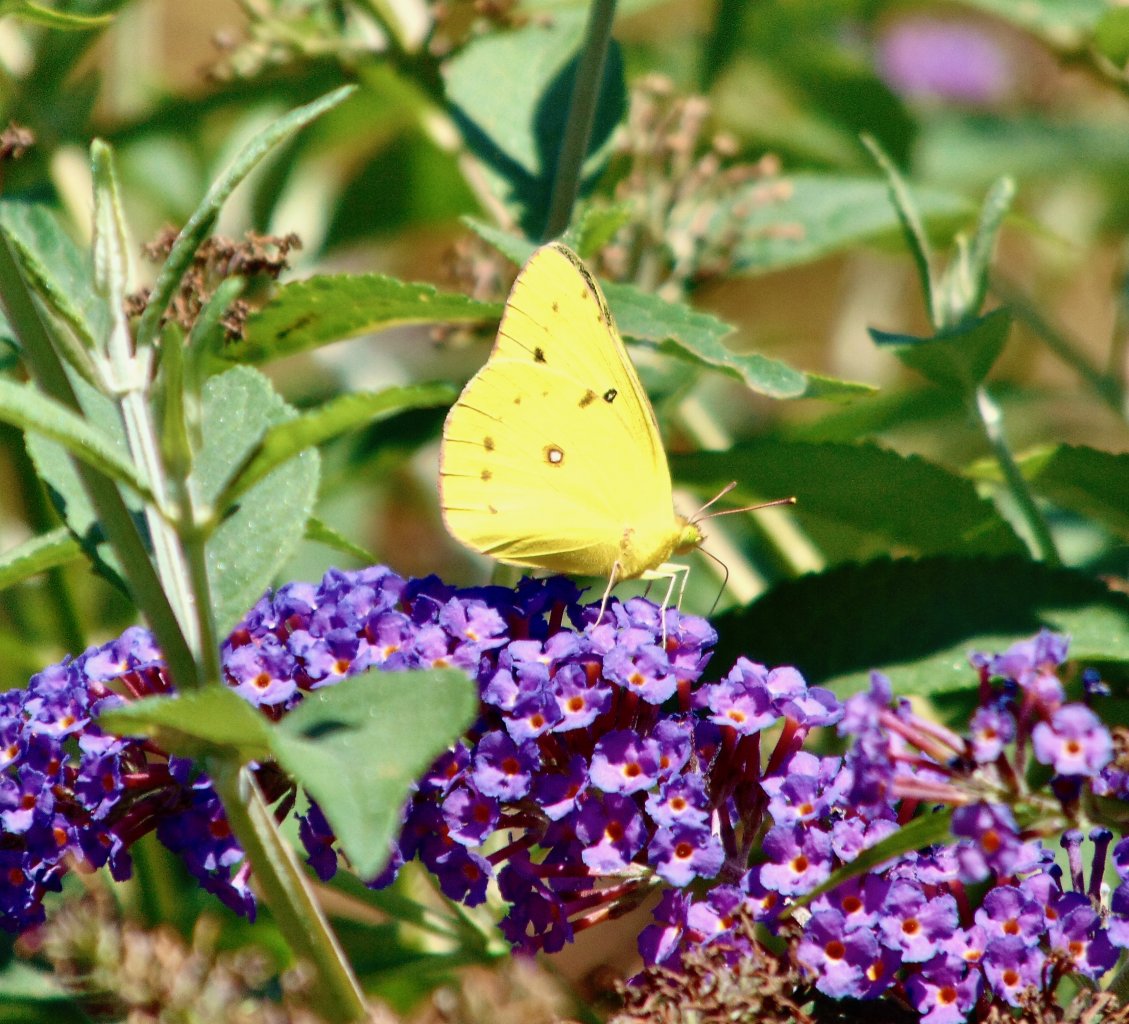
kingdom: Animalia
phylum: Arthropoda
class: Insecta
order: Lepidoptera
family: Pieridae
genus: Colias
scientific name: Colias philodice
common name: Clouded Sulphur
